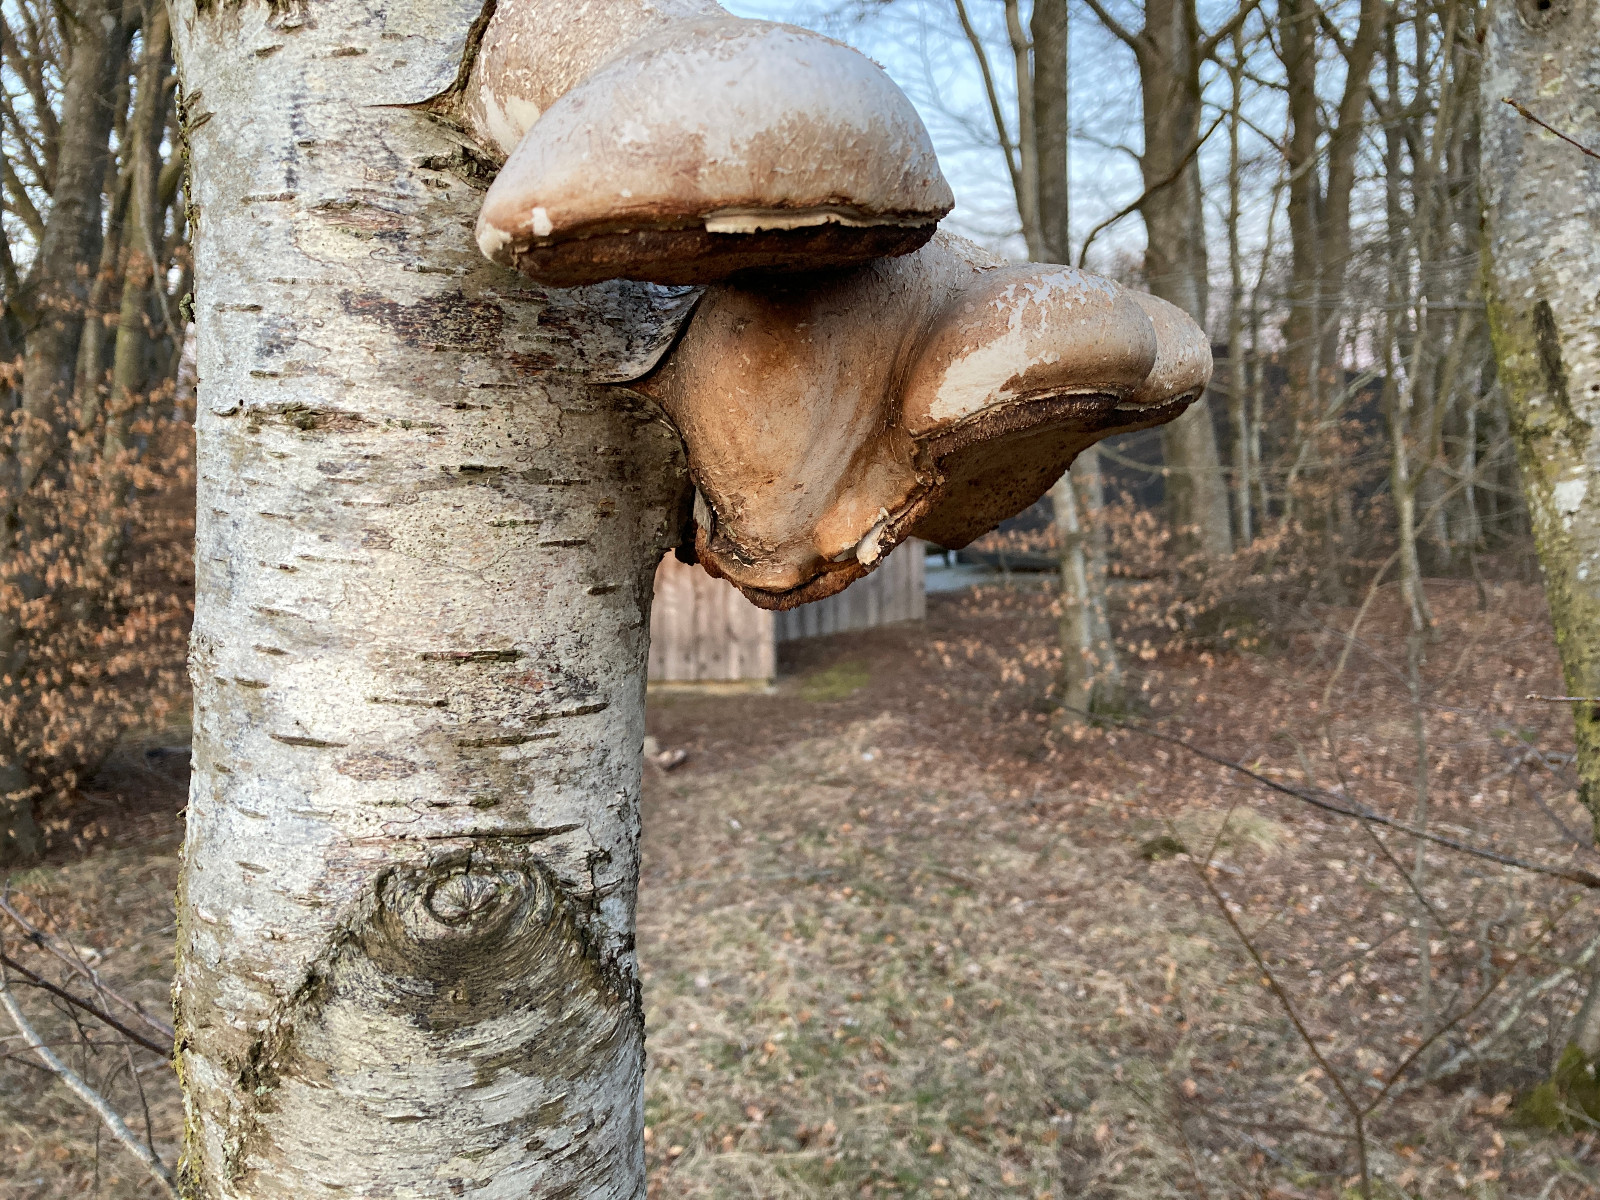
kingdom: Fungi
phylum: Basidiomycota
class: Agaricomycetes
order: Polyporales
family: Fomitopsidaceae
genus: Fomitopsis
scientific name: Fomitopsis betulina
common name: birkeporesvamp
